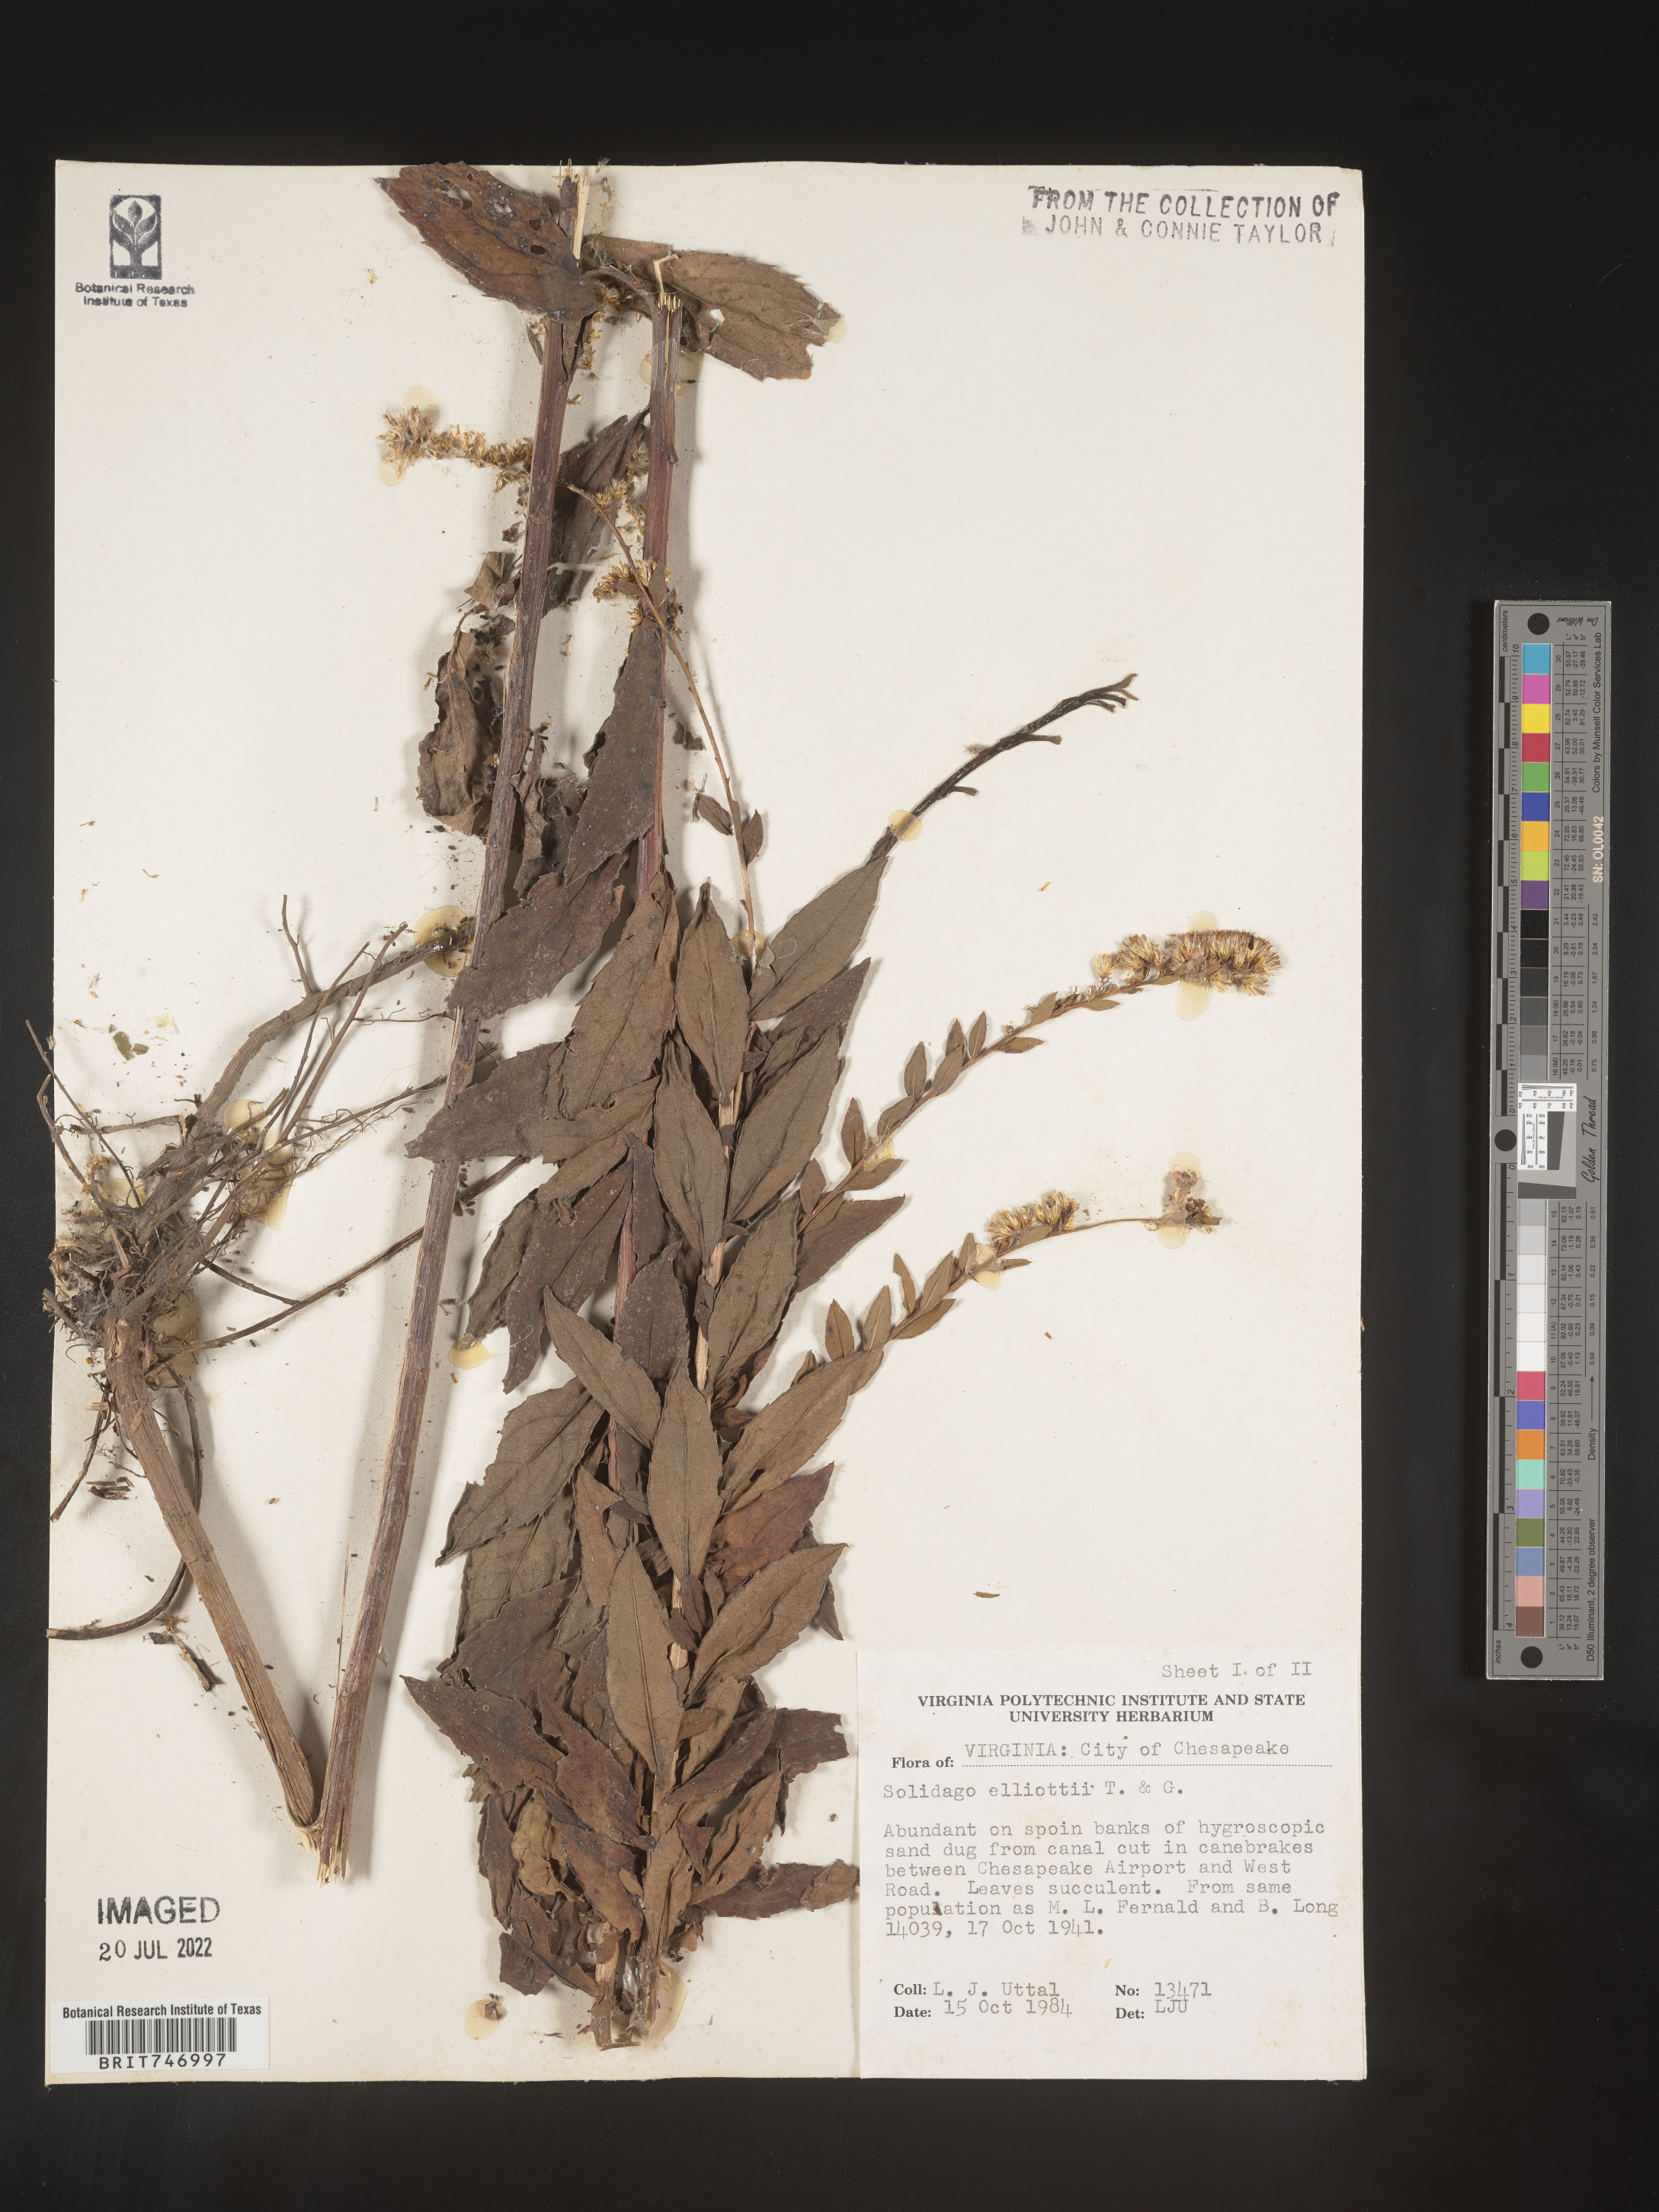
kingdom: Plantae
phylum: Tracheophyta
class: Magnoliopsida
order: Asterales
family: Asteraceae
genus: Solidago
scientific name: Solidago latissimifolia
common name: Elliott's goldenrod
